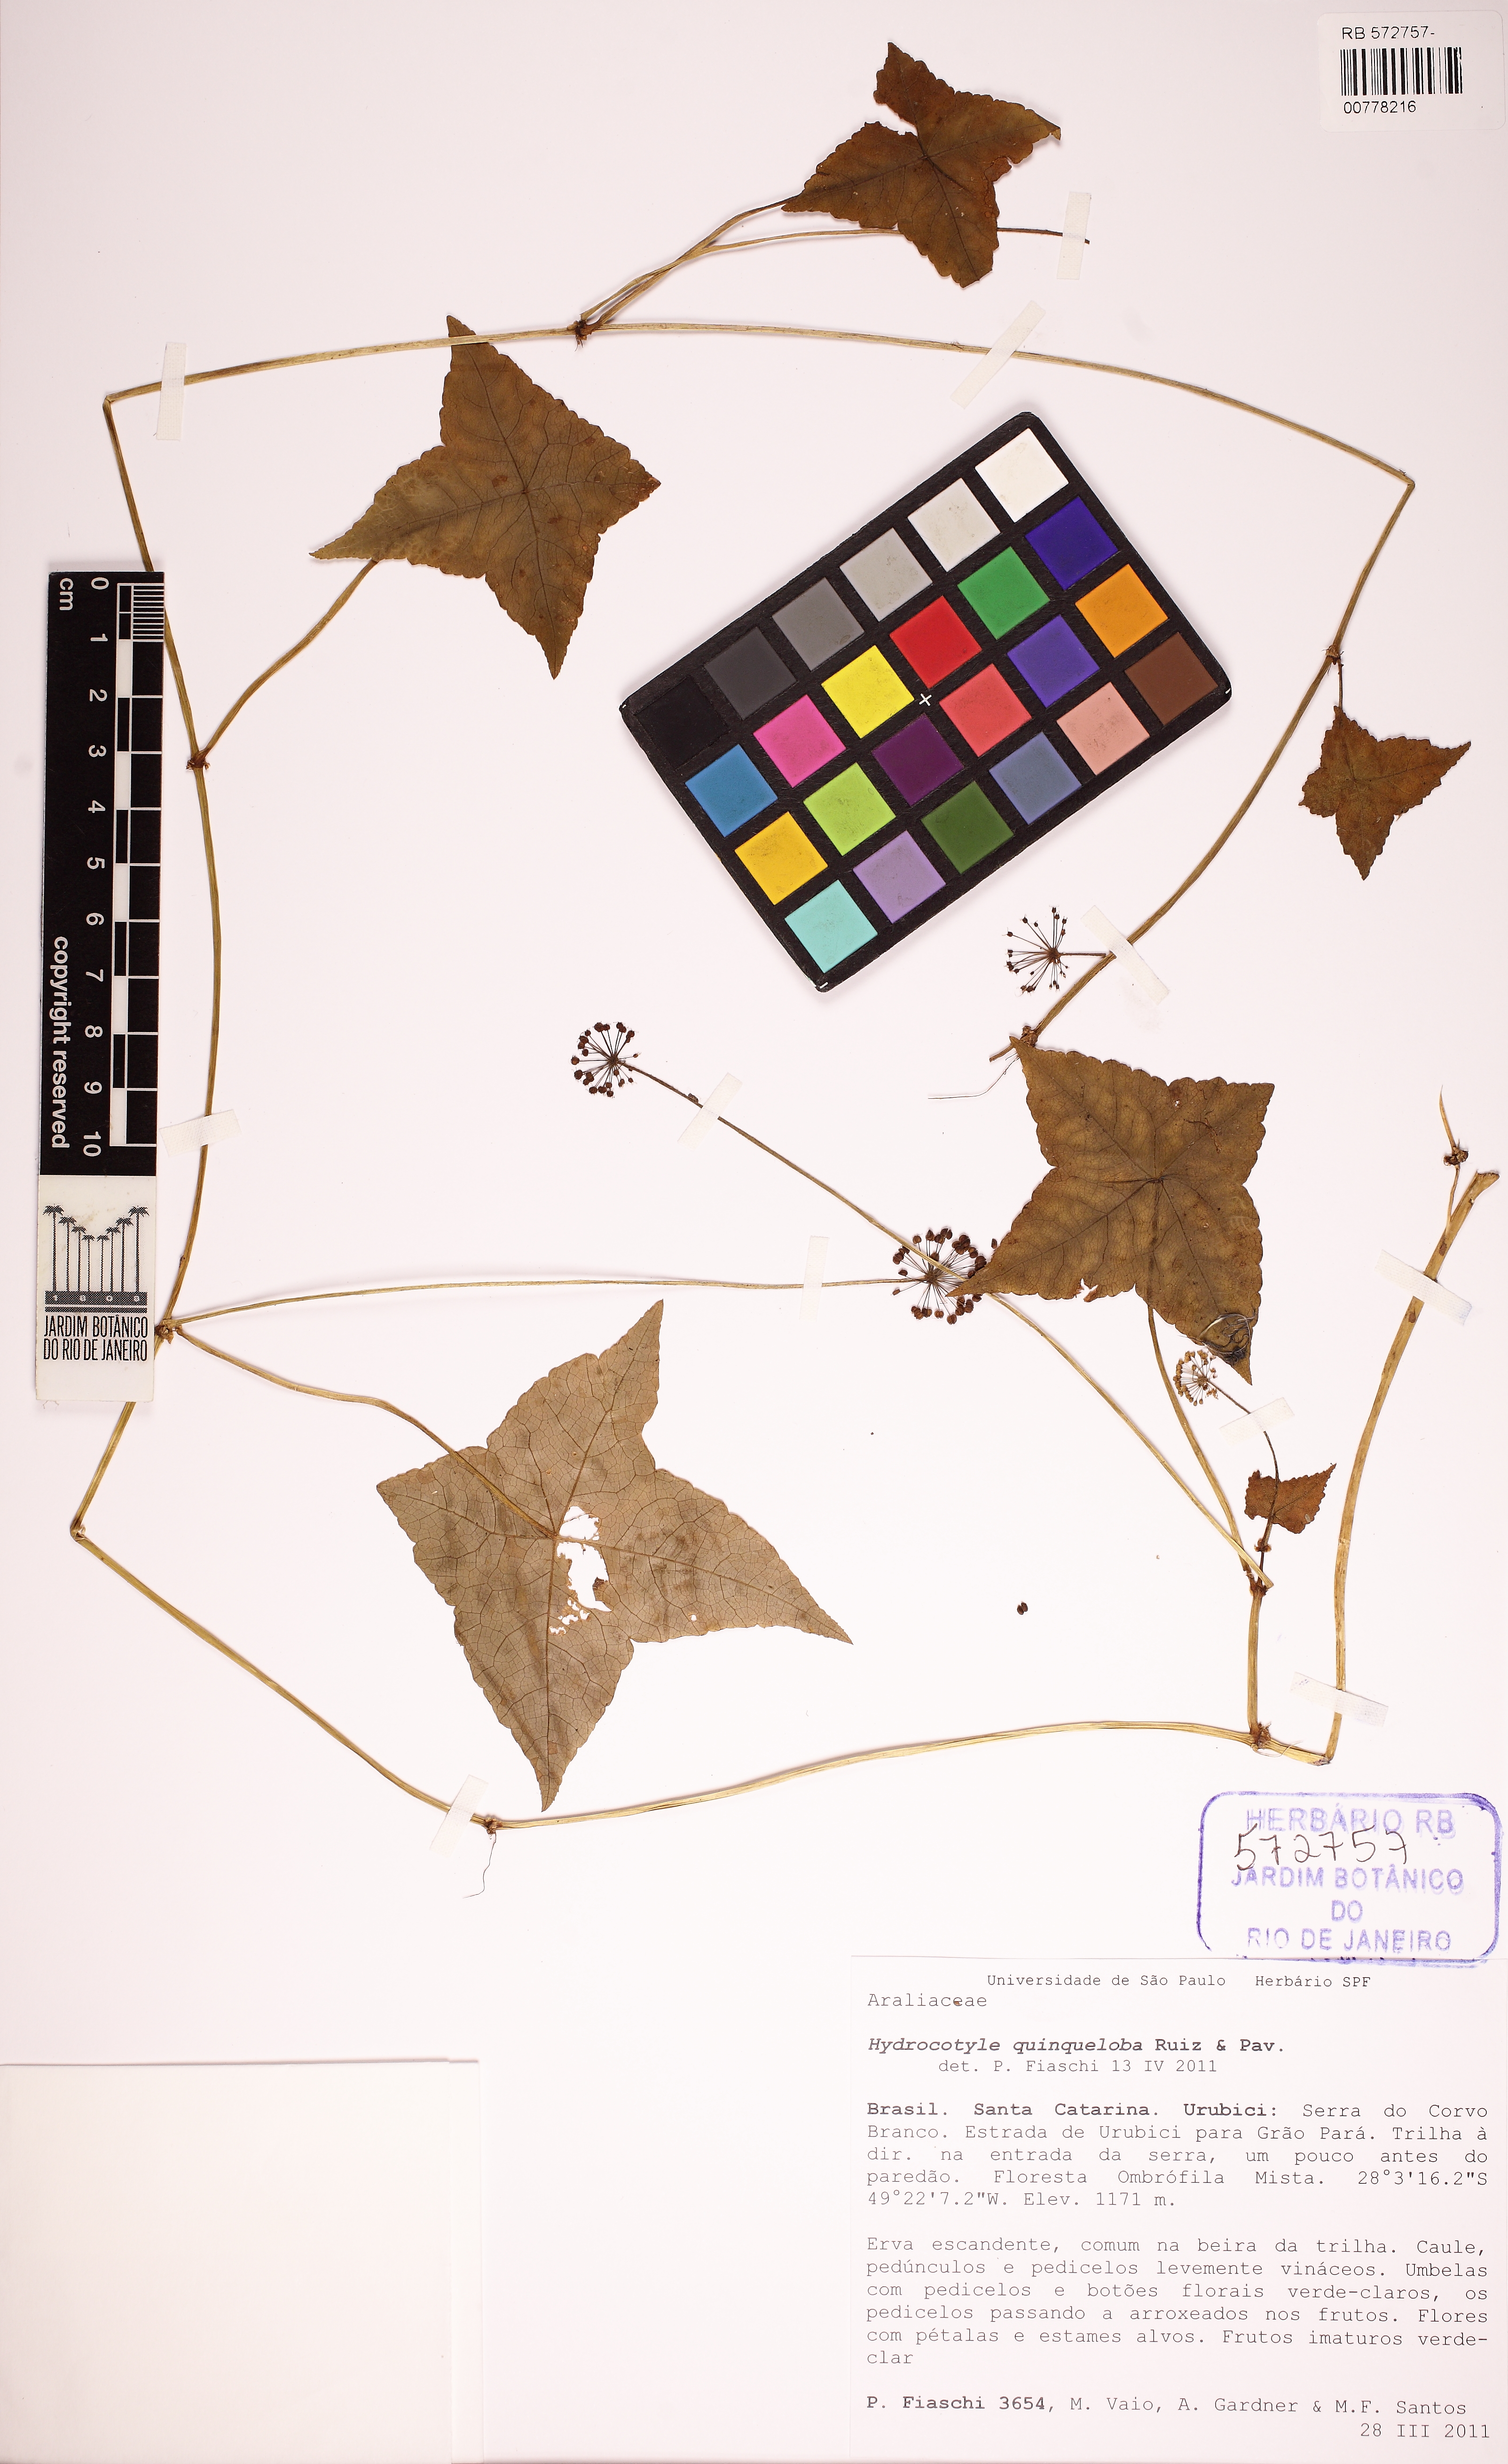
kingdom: Plantae
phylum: Tracheophyta
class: Magnoliopsida
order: Apiales
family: Araliaceae
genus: Hydrocotyle
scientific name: Hydrocotyle quinqueloba
